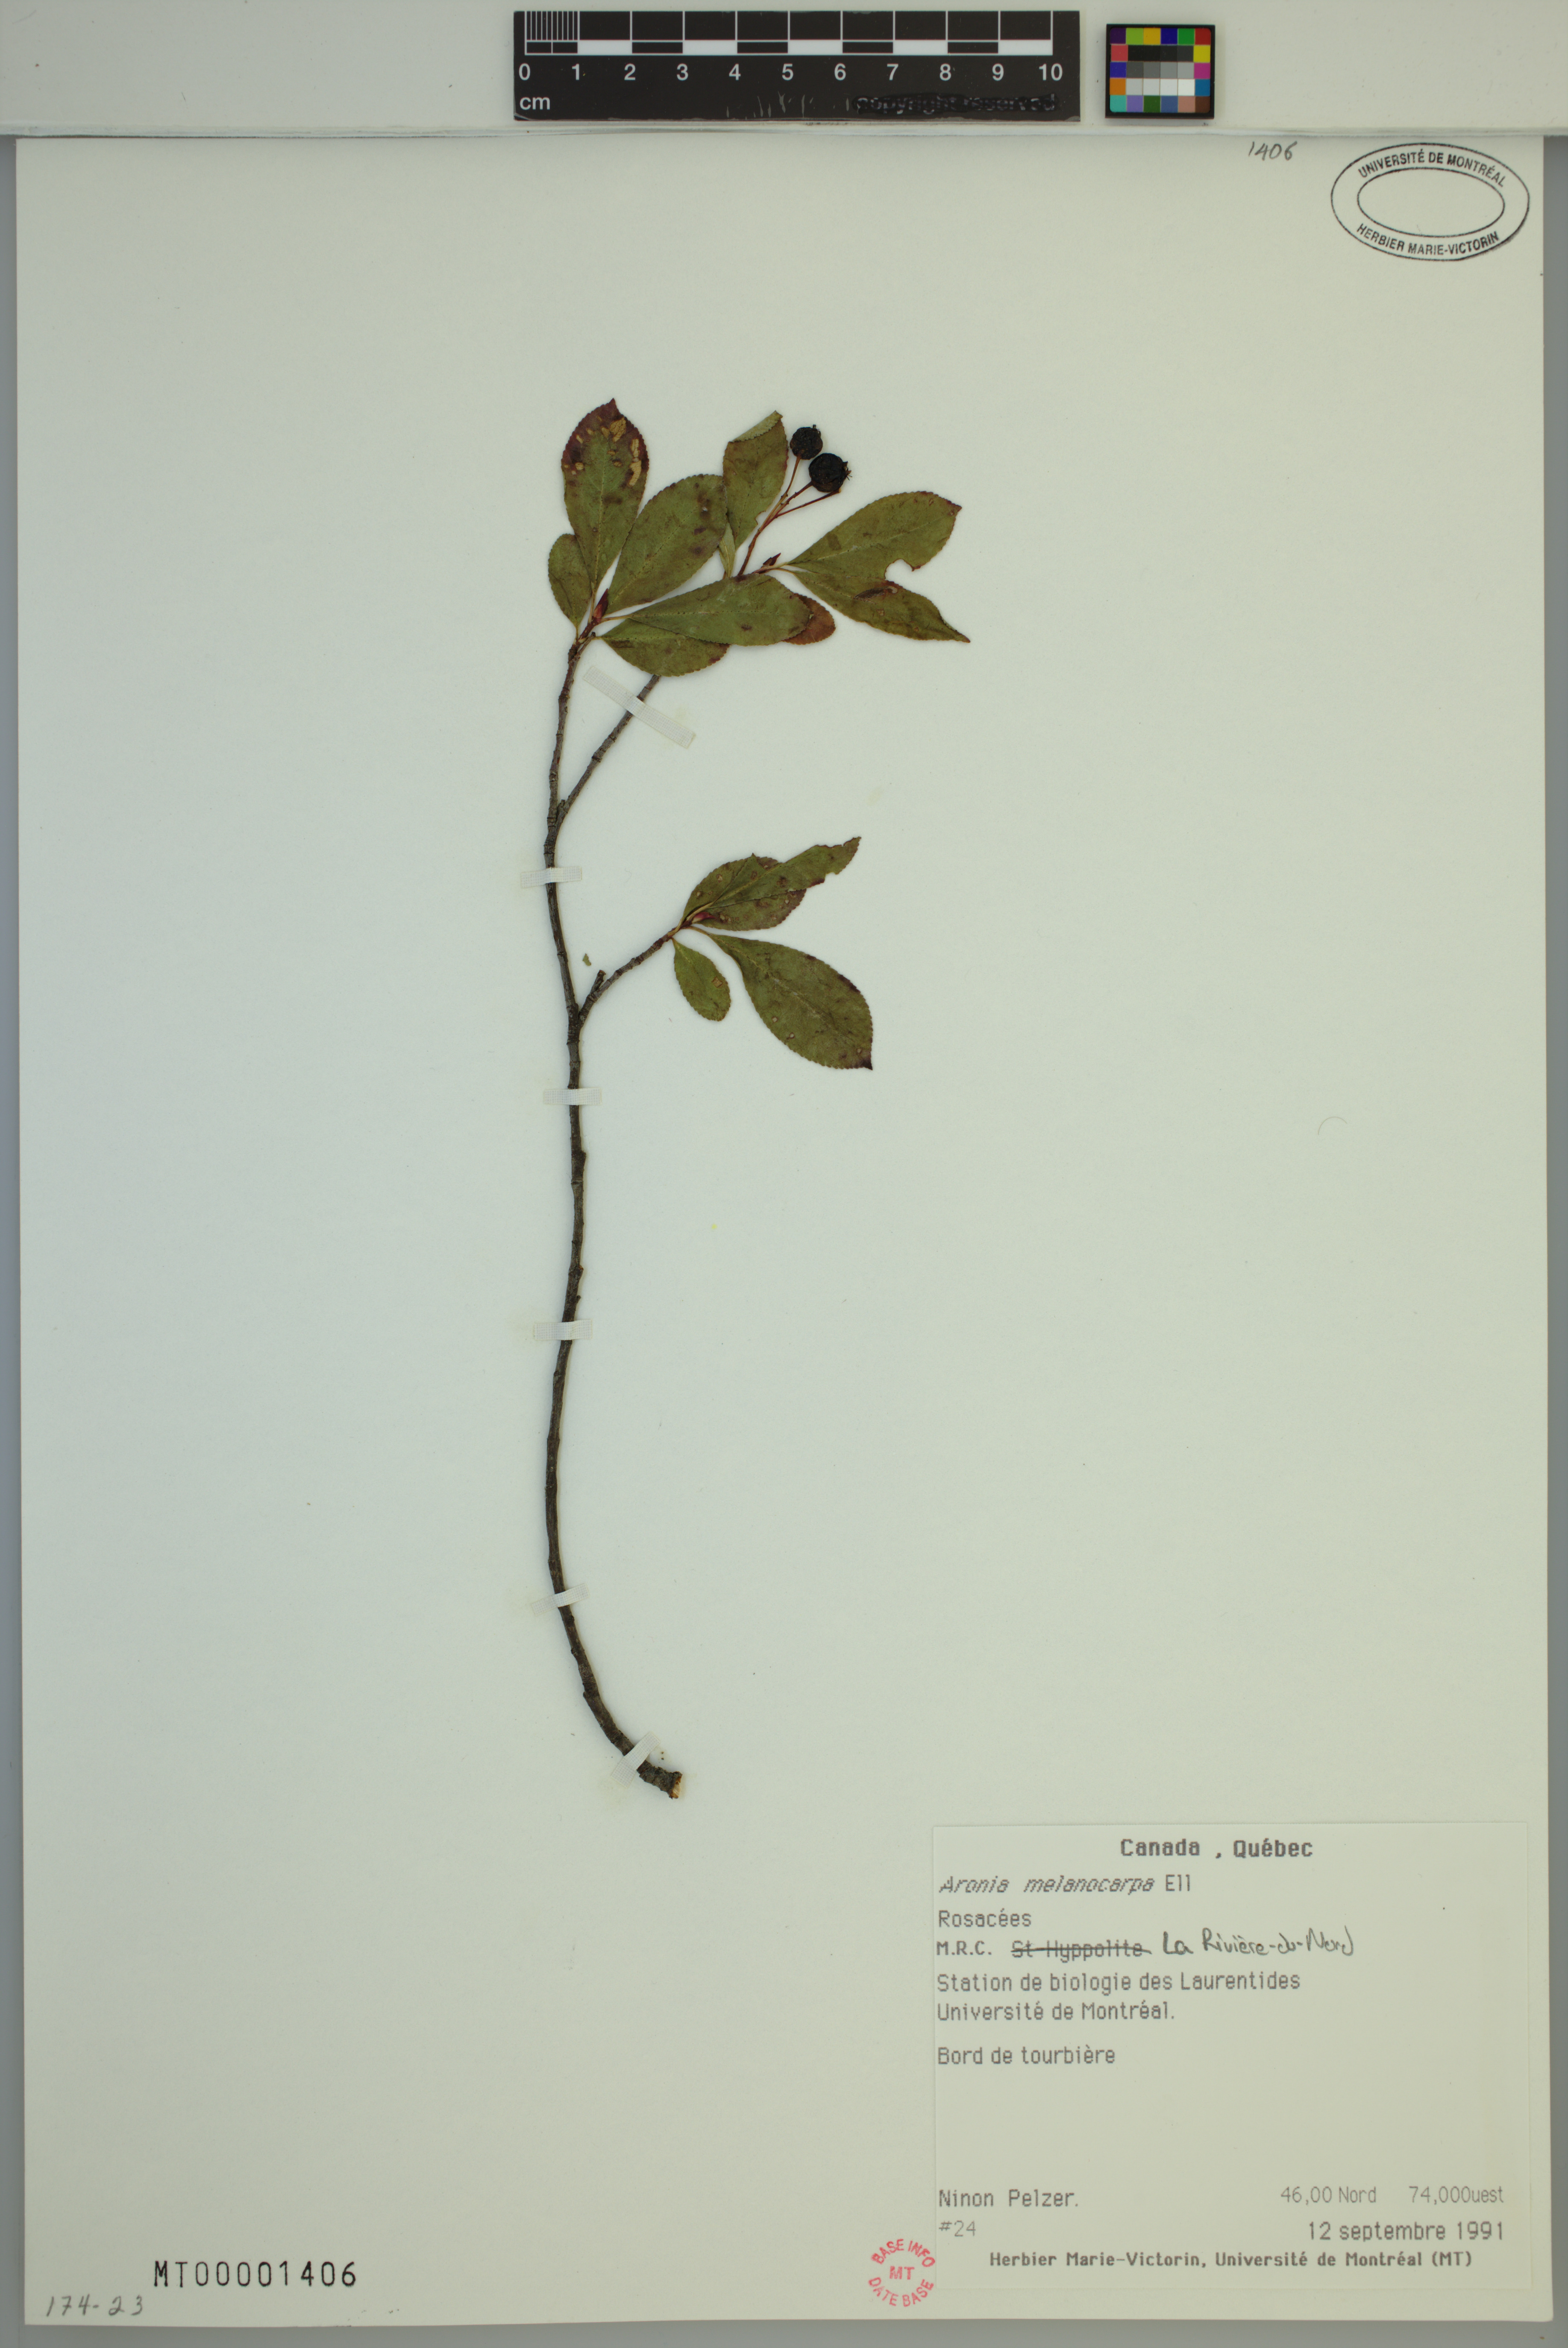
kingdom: Plantae
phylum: Tracheophyta
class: Magnoliopsida
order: Rosales
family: Rosaceae
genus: Aronia
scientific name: Aronia melanocarpa
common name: Black chokeberry
